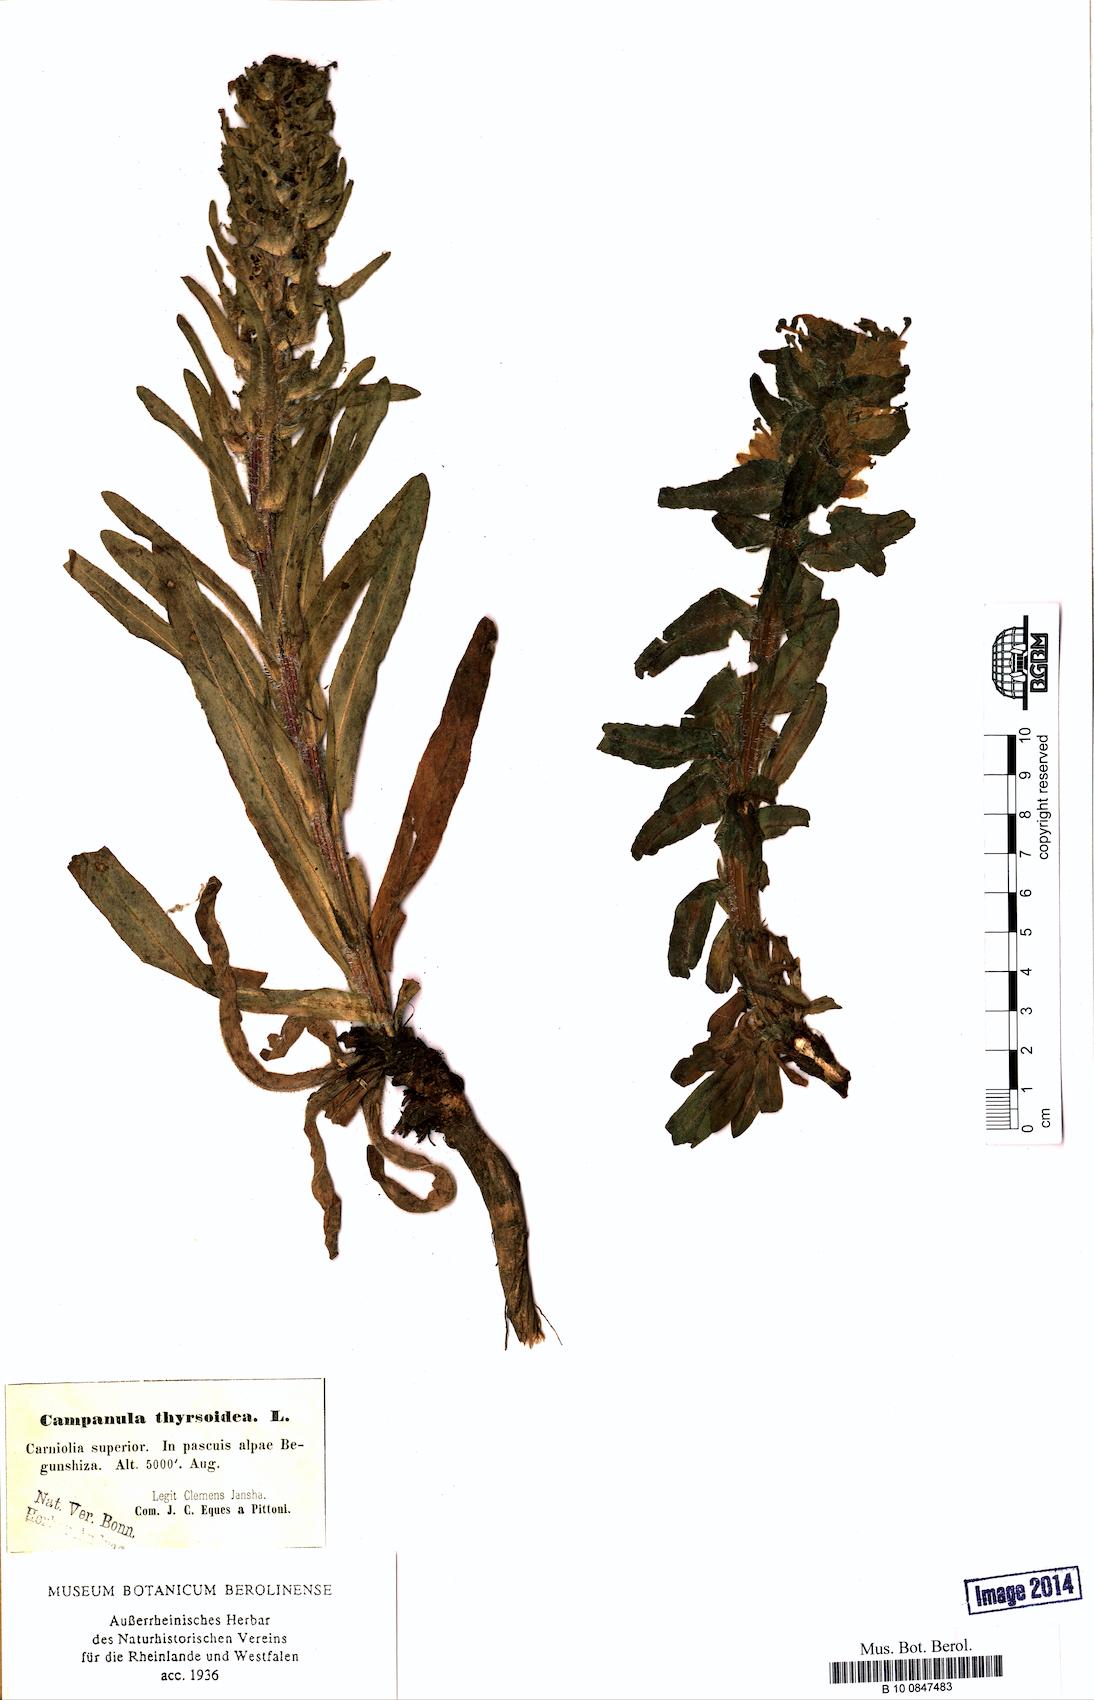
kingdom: Plantae
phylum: Tracheophyta
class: Magnoliopsida
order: Asterales
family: Campanulaceae
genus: Campanula
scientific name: Campanula thyrsoides
